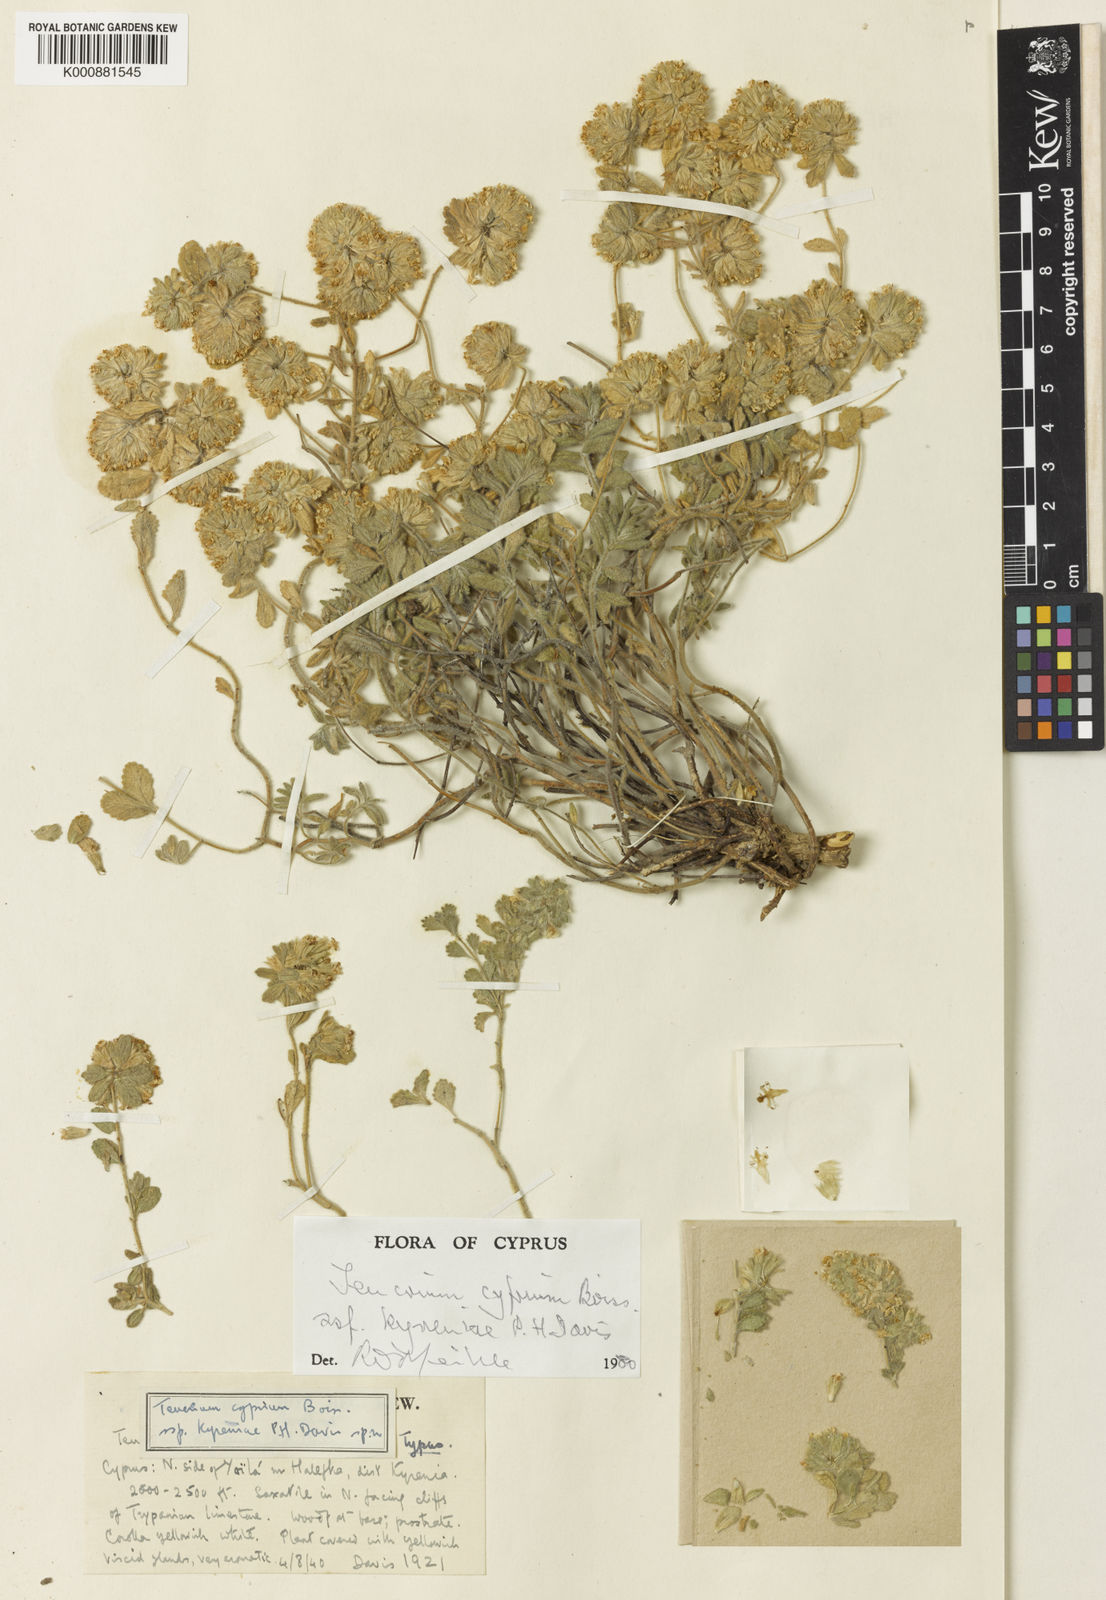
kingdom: Plantae
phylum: Tracheophyta
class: Magnoliopsida
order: Lamiales
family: Lamiaceae
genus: Teucrium
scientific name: Teucrium kyreniae
